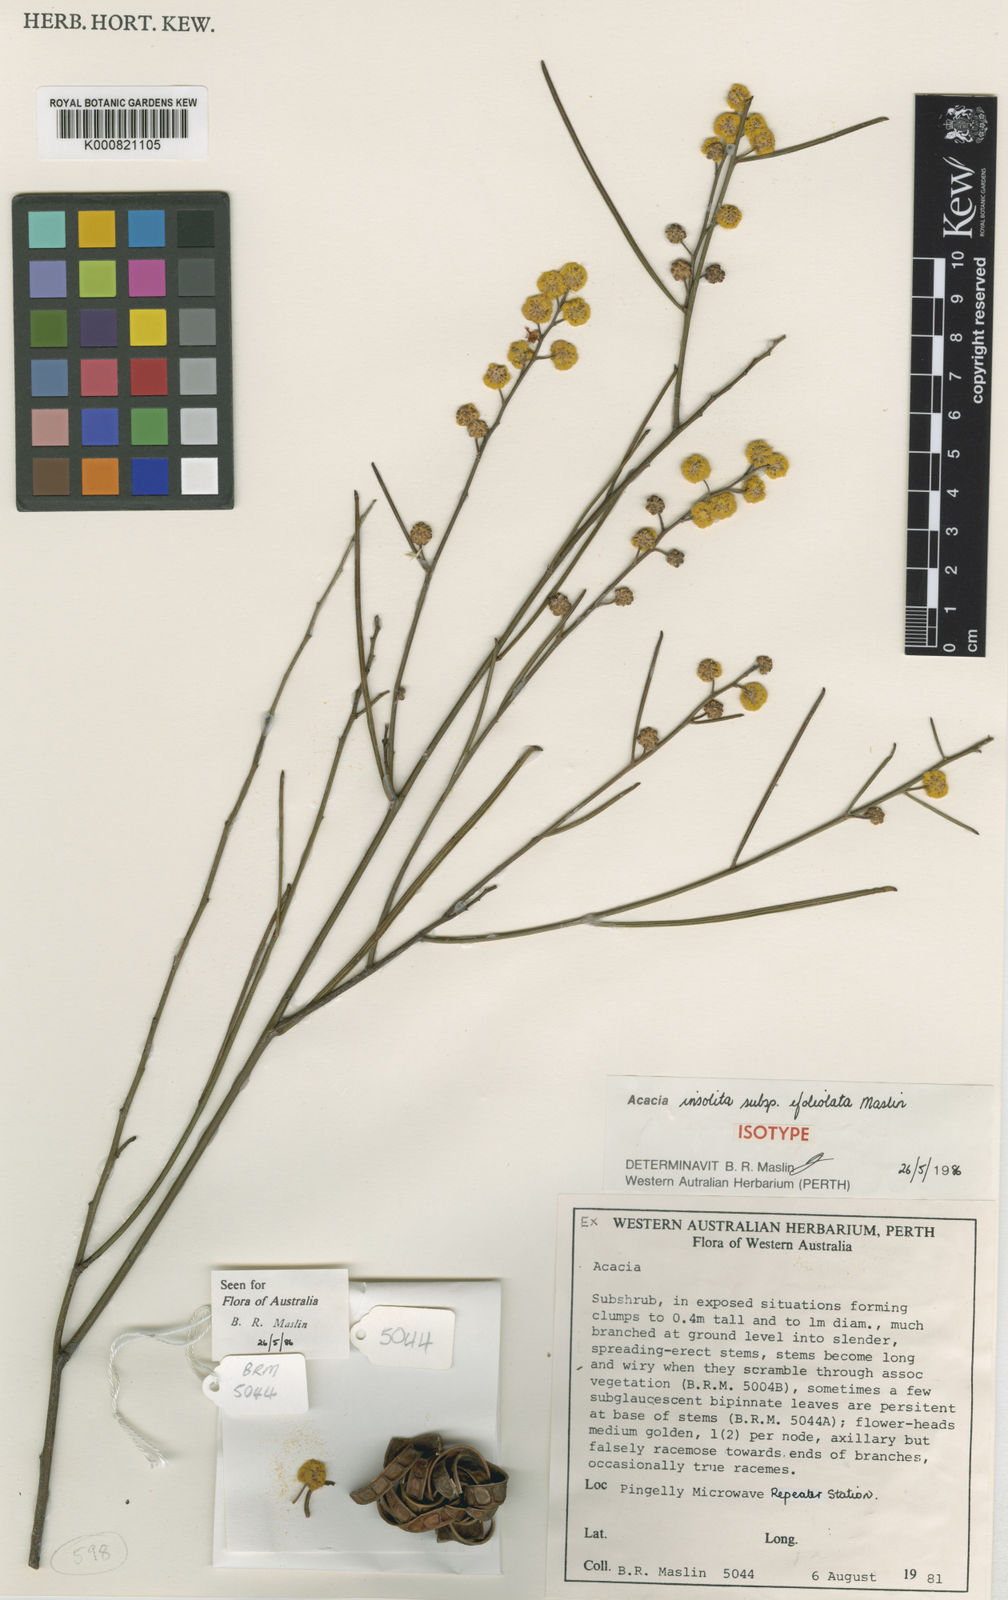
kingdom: Plantae
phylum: Tracheophyta
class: Magnoliopsida
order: Fabales
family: Fabaceae
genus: Acacia
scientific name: Acacia adjutrices
